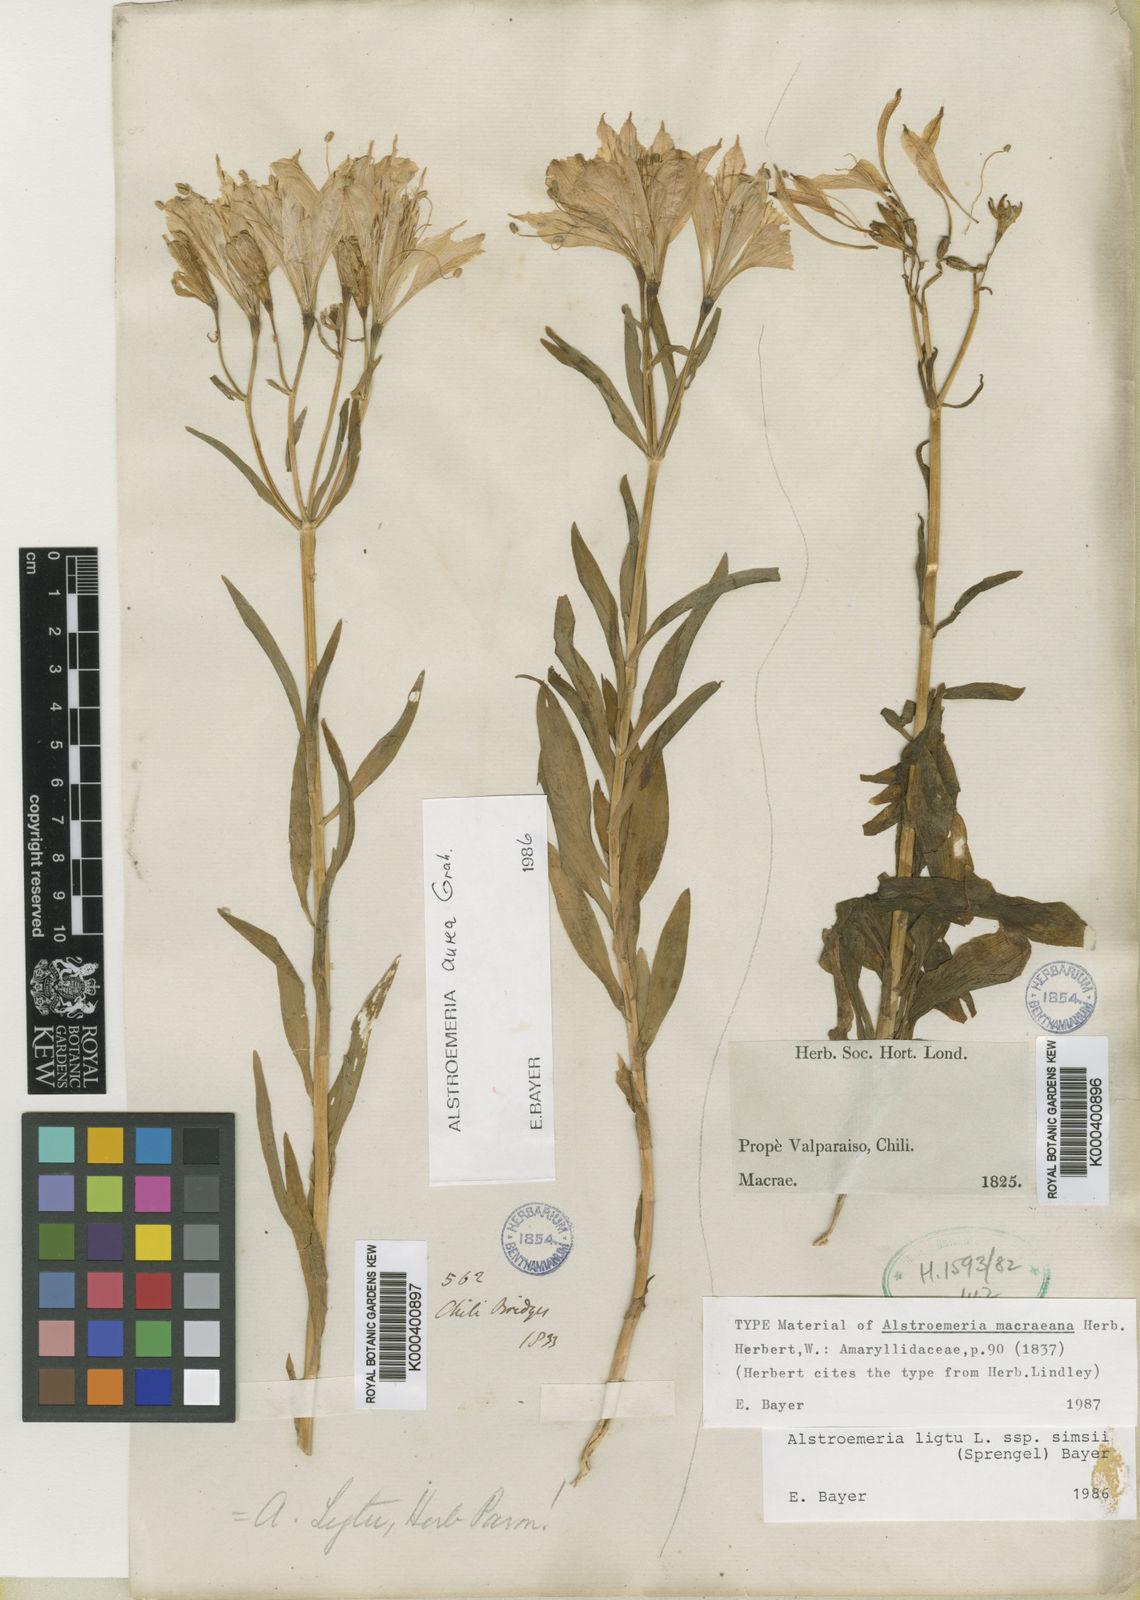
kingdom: Plantae
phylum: Tracheophyta
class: Liliopsida
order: Liliales
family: Alstroemeriaceae
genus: Alstroemeria
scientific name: Alstroemeria ligtu
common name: St. martin's-flower
